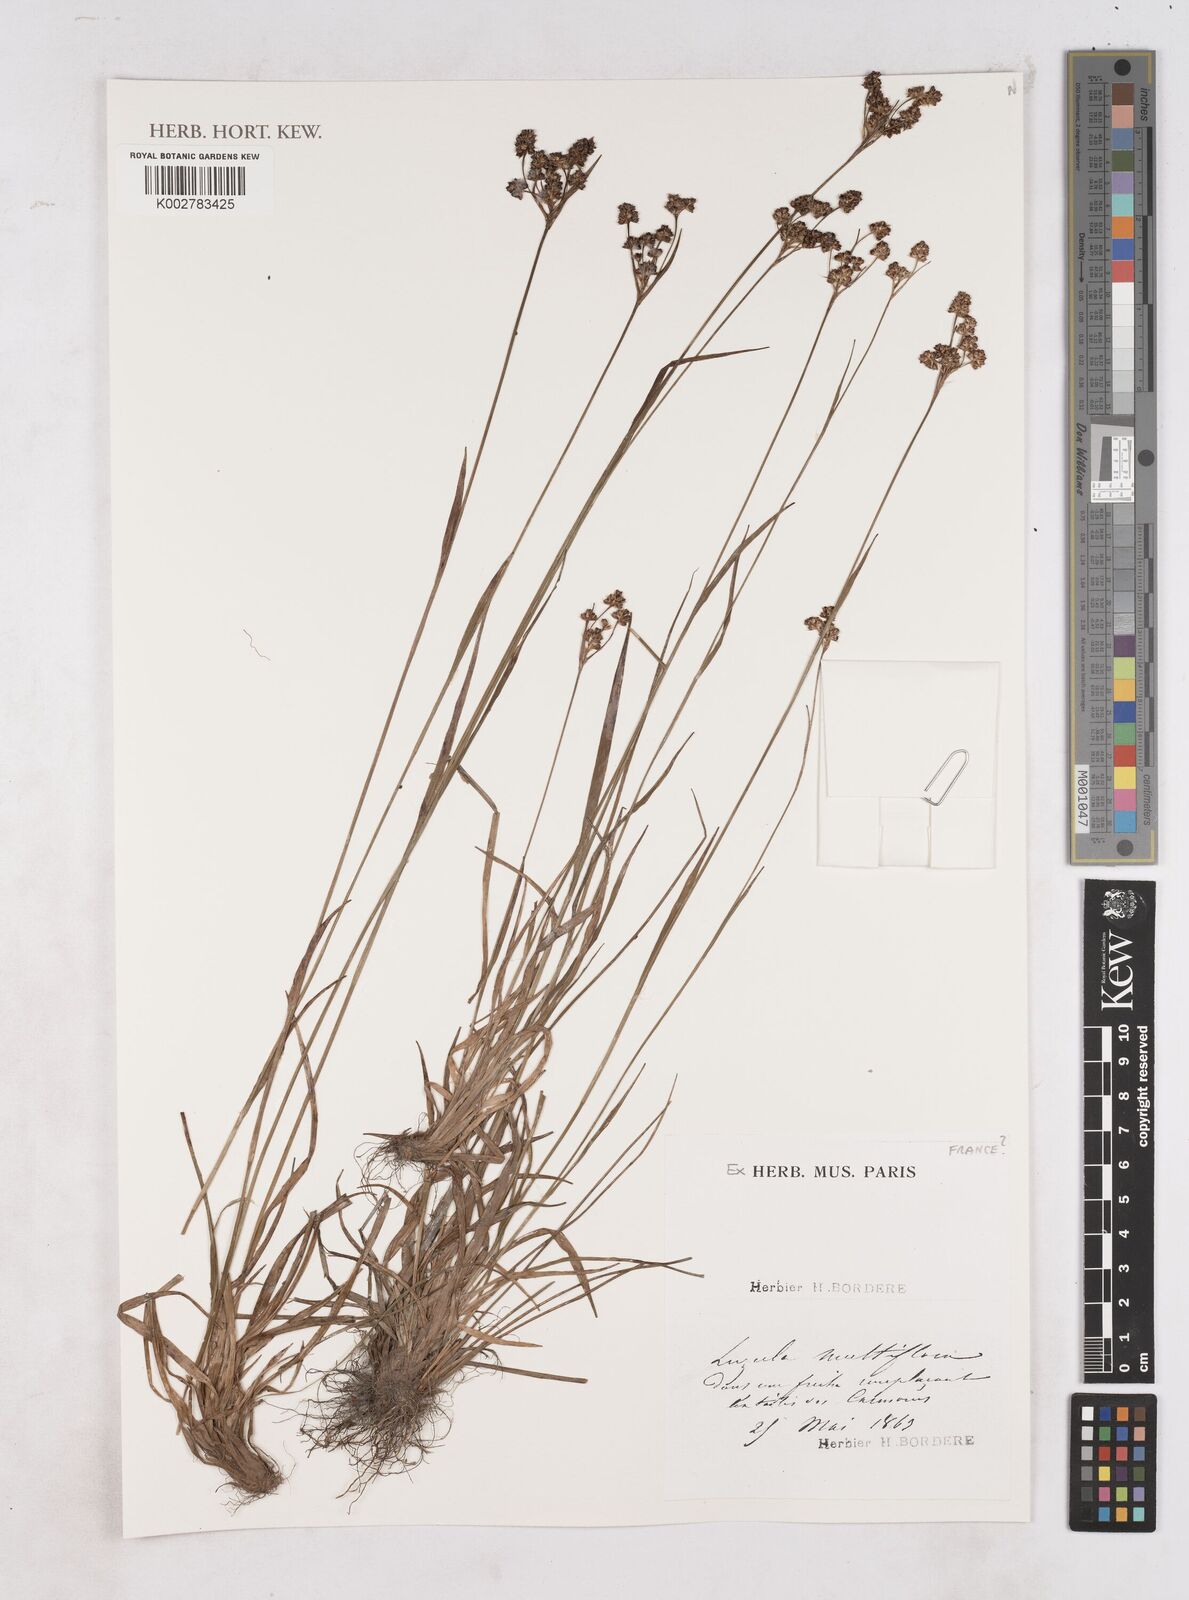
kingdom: Plantae
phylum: Tracheophyta
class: Liliopsida
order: Poales
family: Juncaceae
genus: Luzula
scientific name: Luzula multiflora
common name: Heath wood-rush
